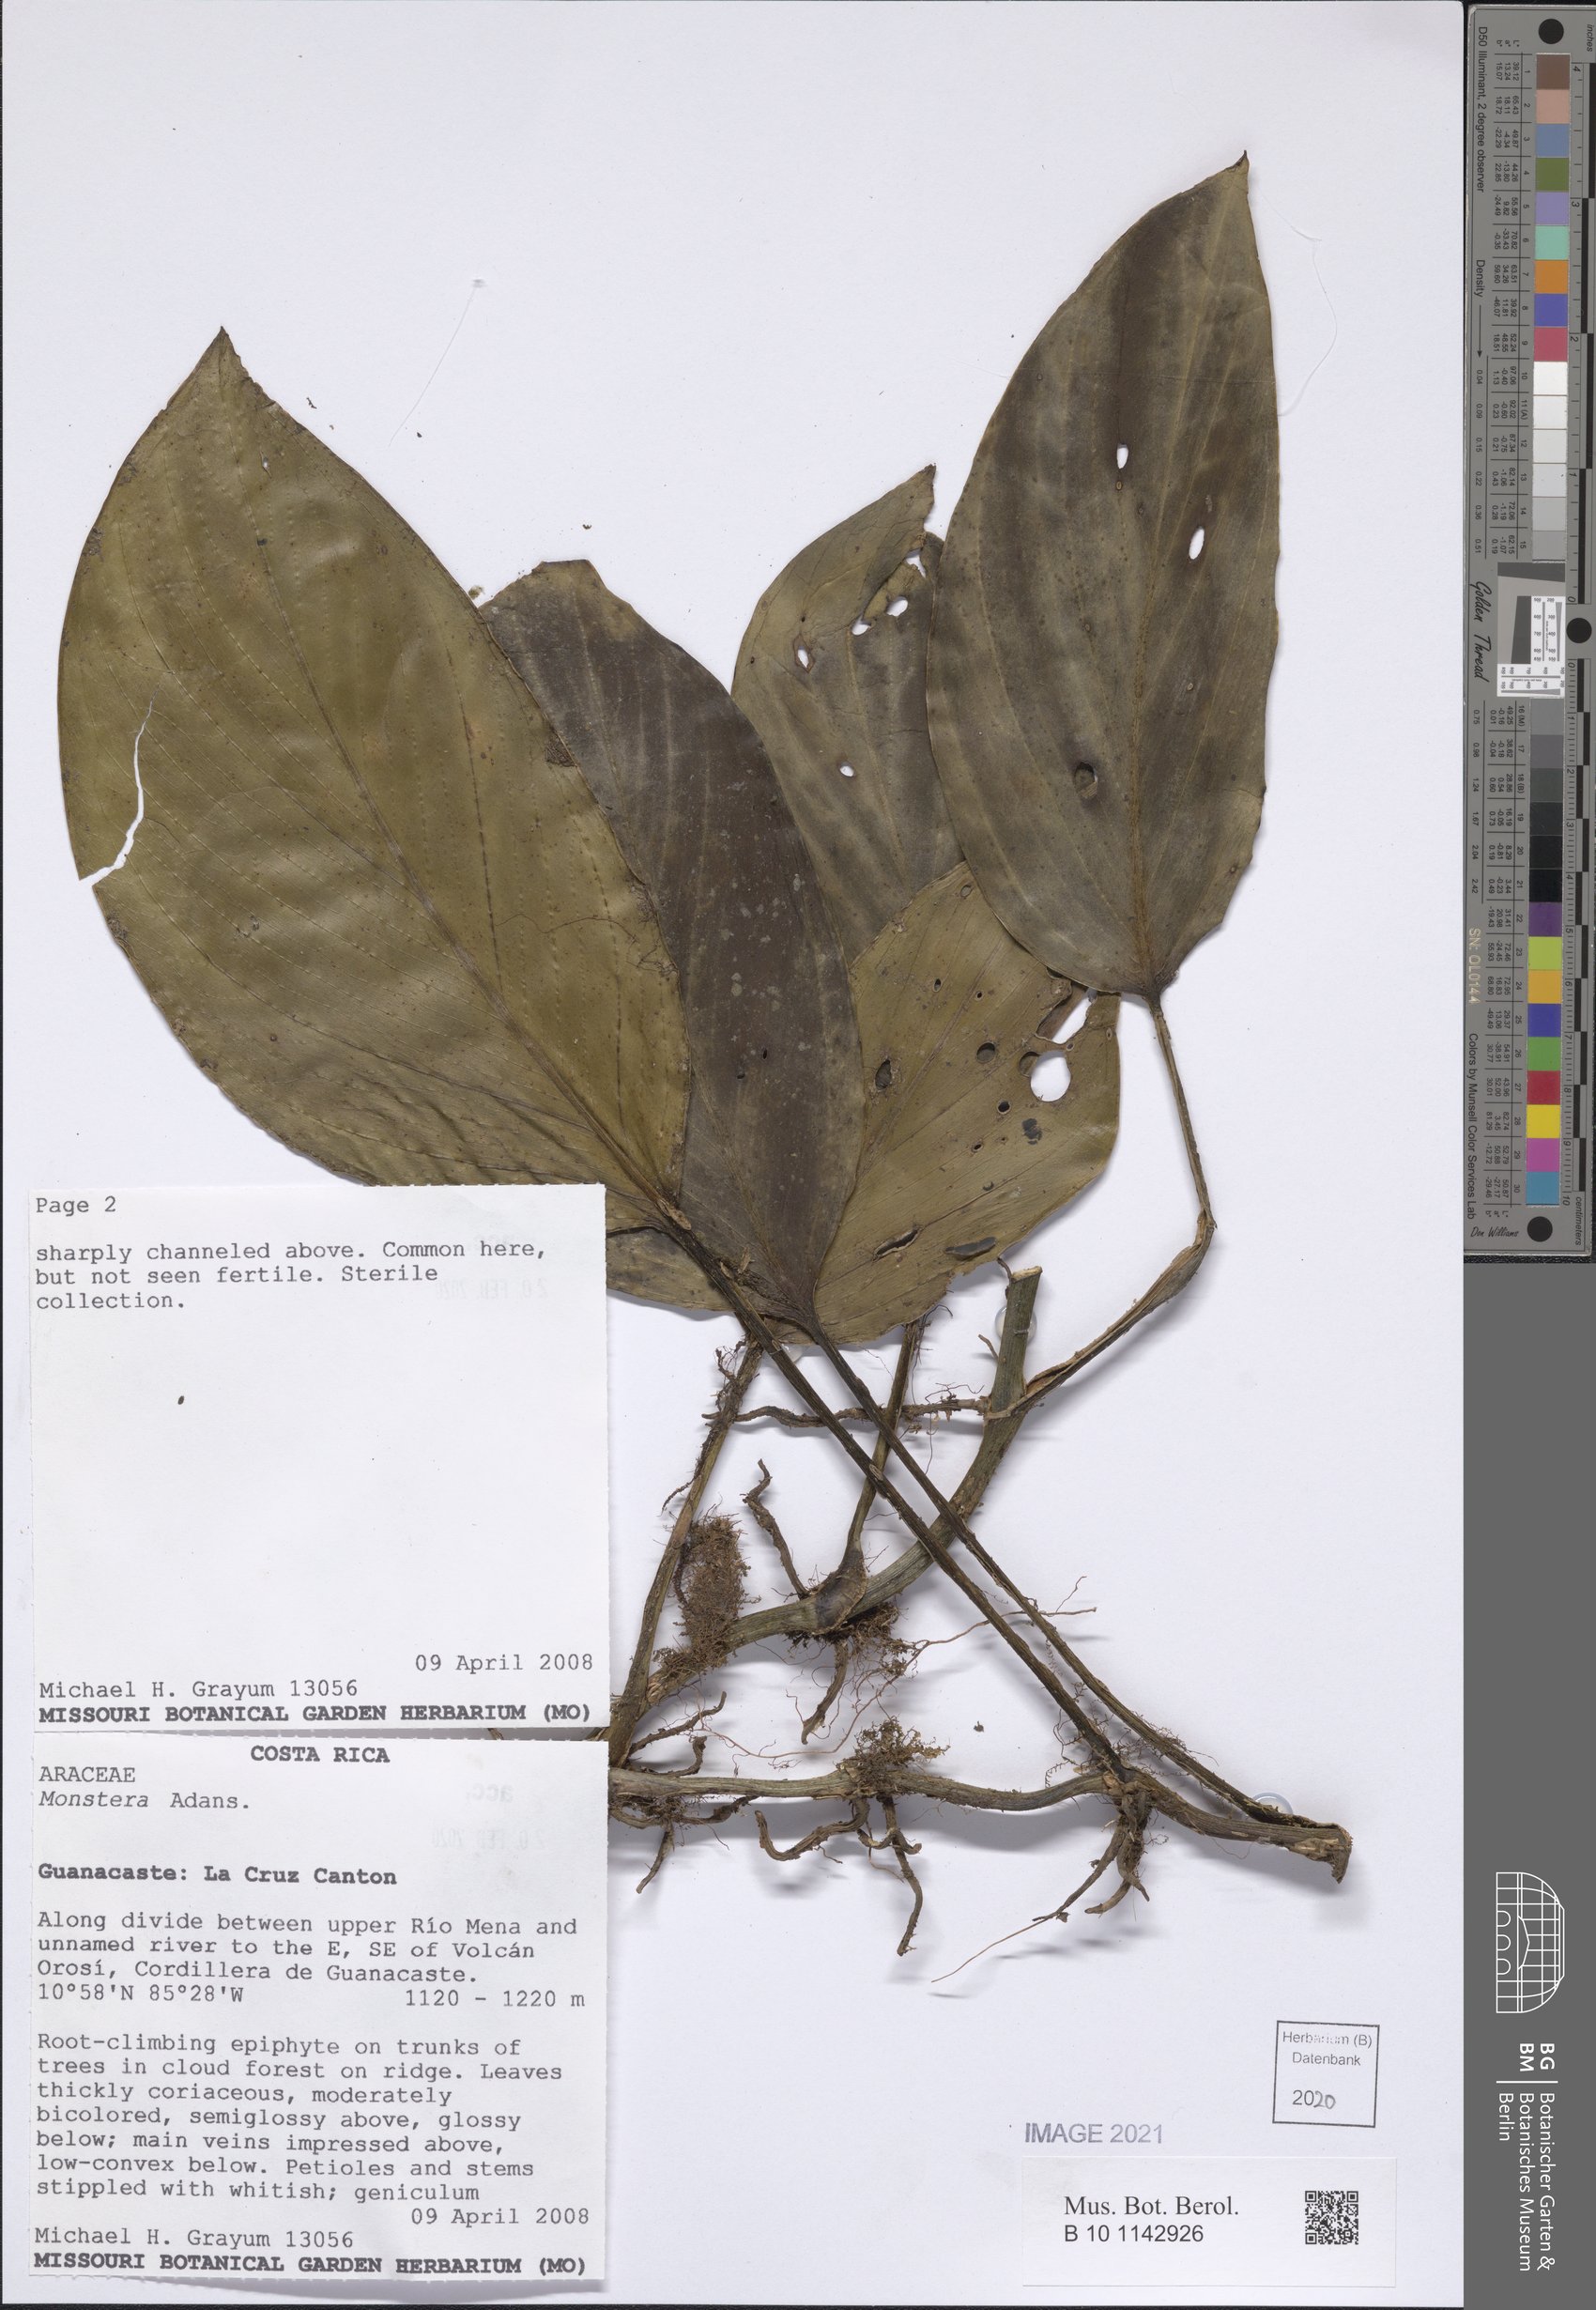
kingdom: Plantae
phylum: Tracheophyta
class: Liliopsida
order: Alismatales
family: Araceae
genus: Monstera
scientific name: Monstera
